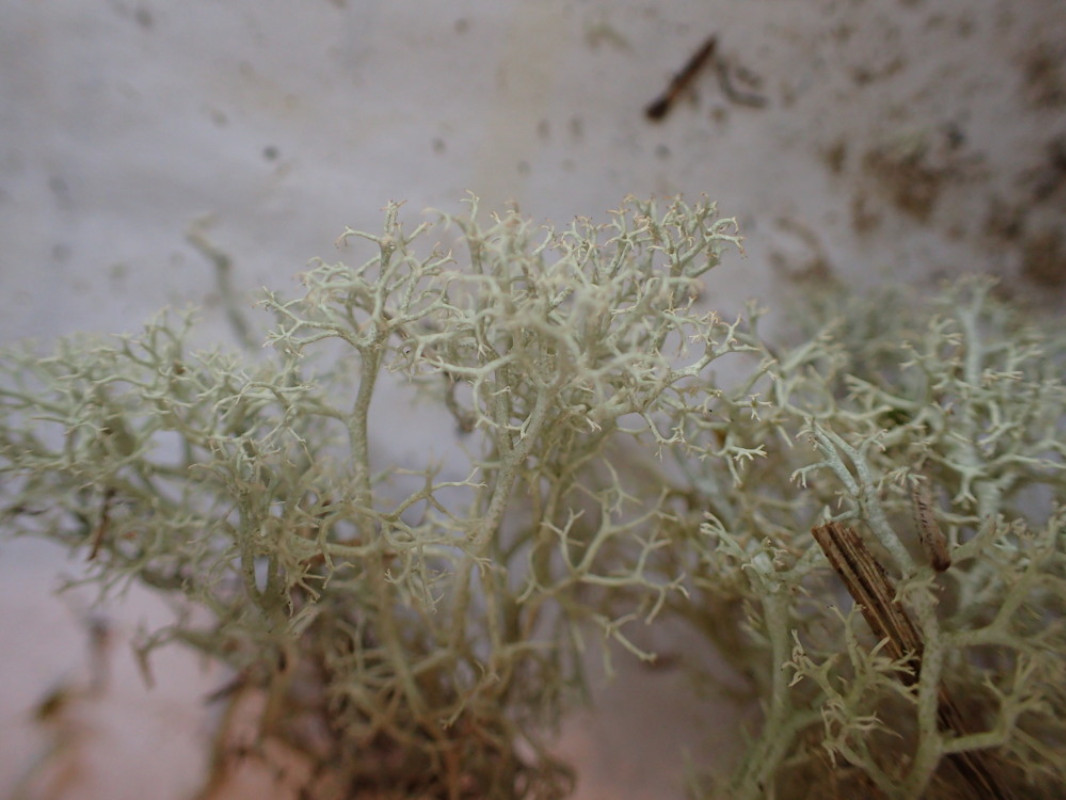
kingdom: Fungi
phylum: Ascomycota
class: Lecanoromycetes
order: Lecanorales
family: Cladoniaceae
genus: Cladonia
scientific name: Cladonia portentosa
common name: hede-rensdyrlav
